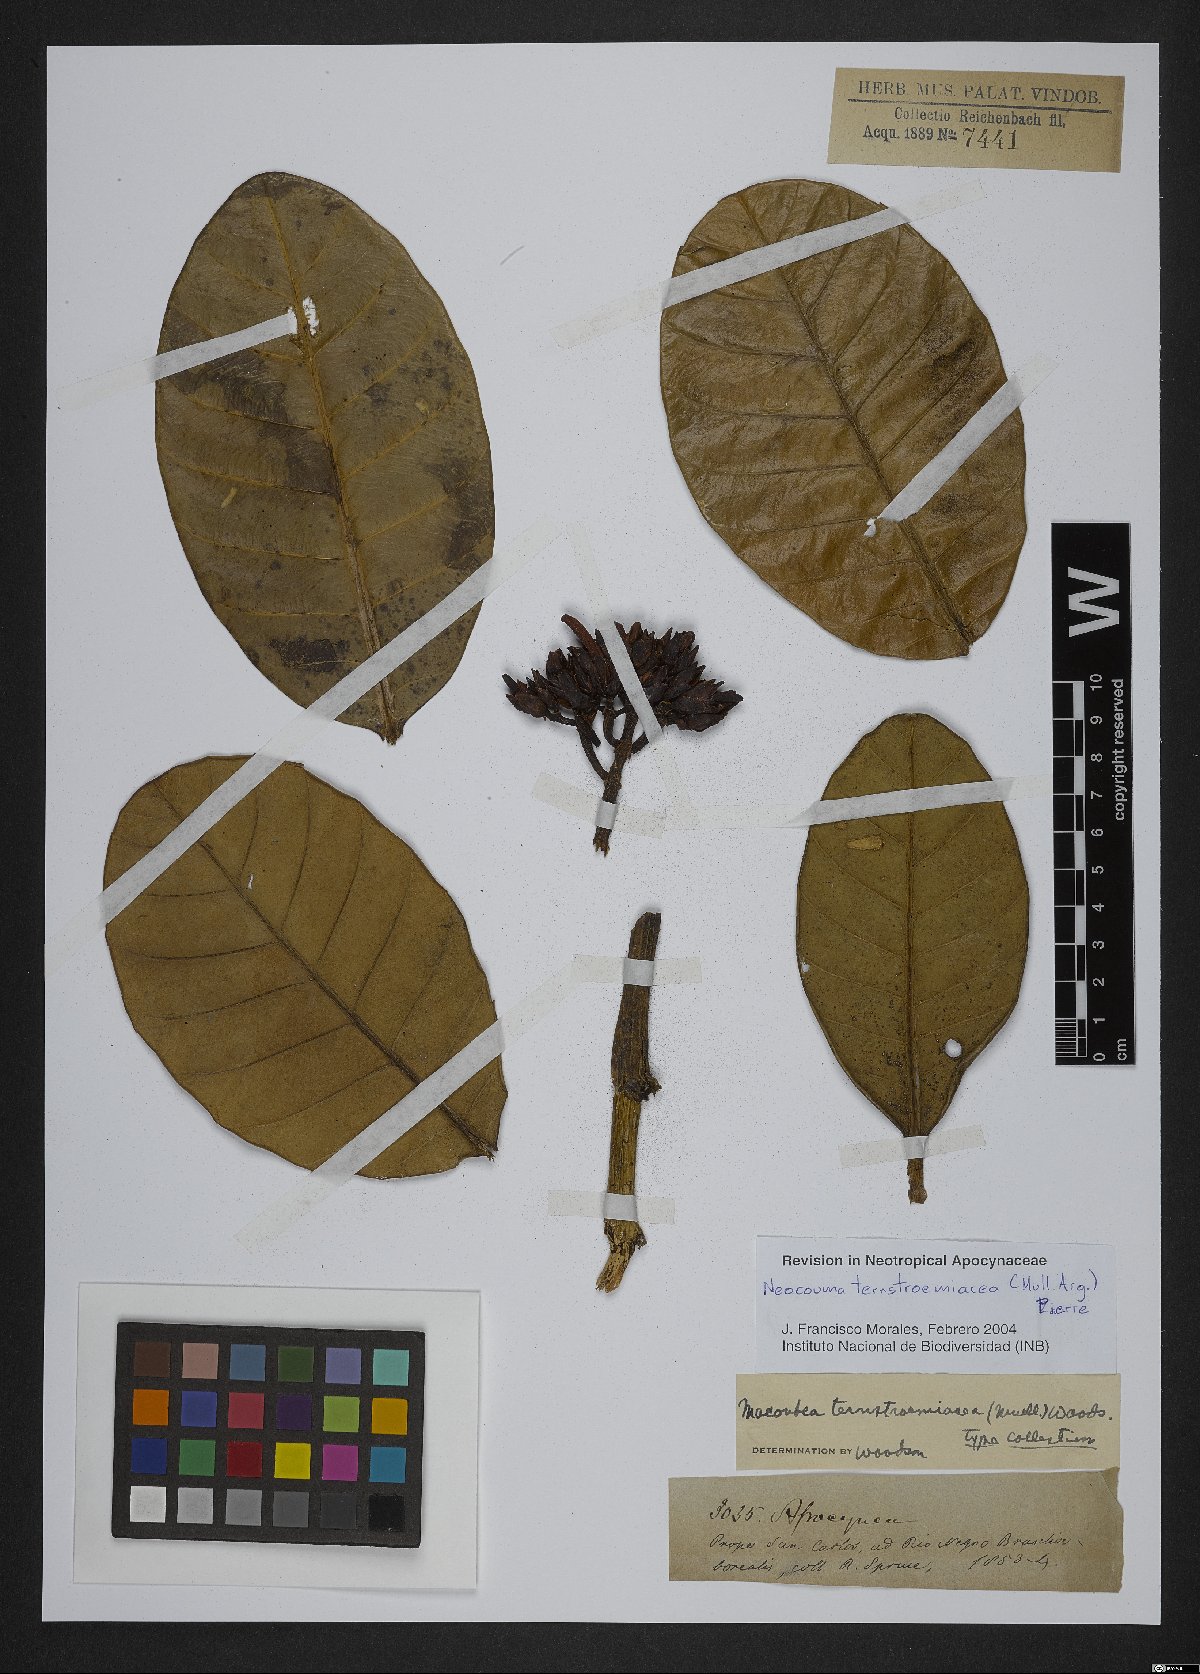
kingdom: Plantae
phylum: Tracheophyta
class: Magnoliopsida
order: Gentianales
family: Apocynaceae
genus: Neocouma
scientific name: Neocouma ternstroemiacea
